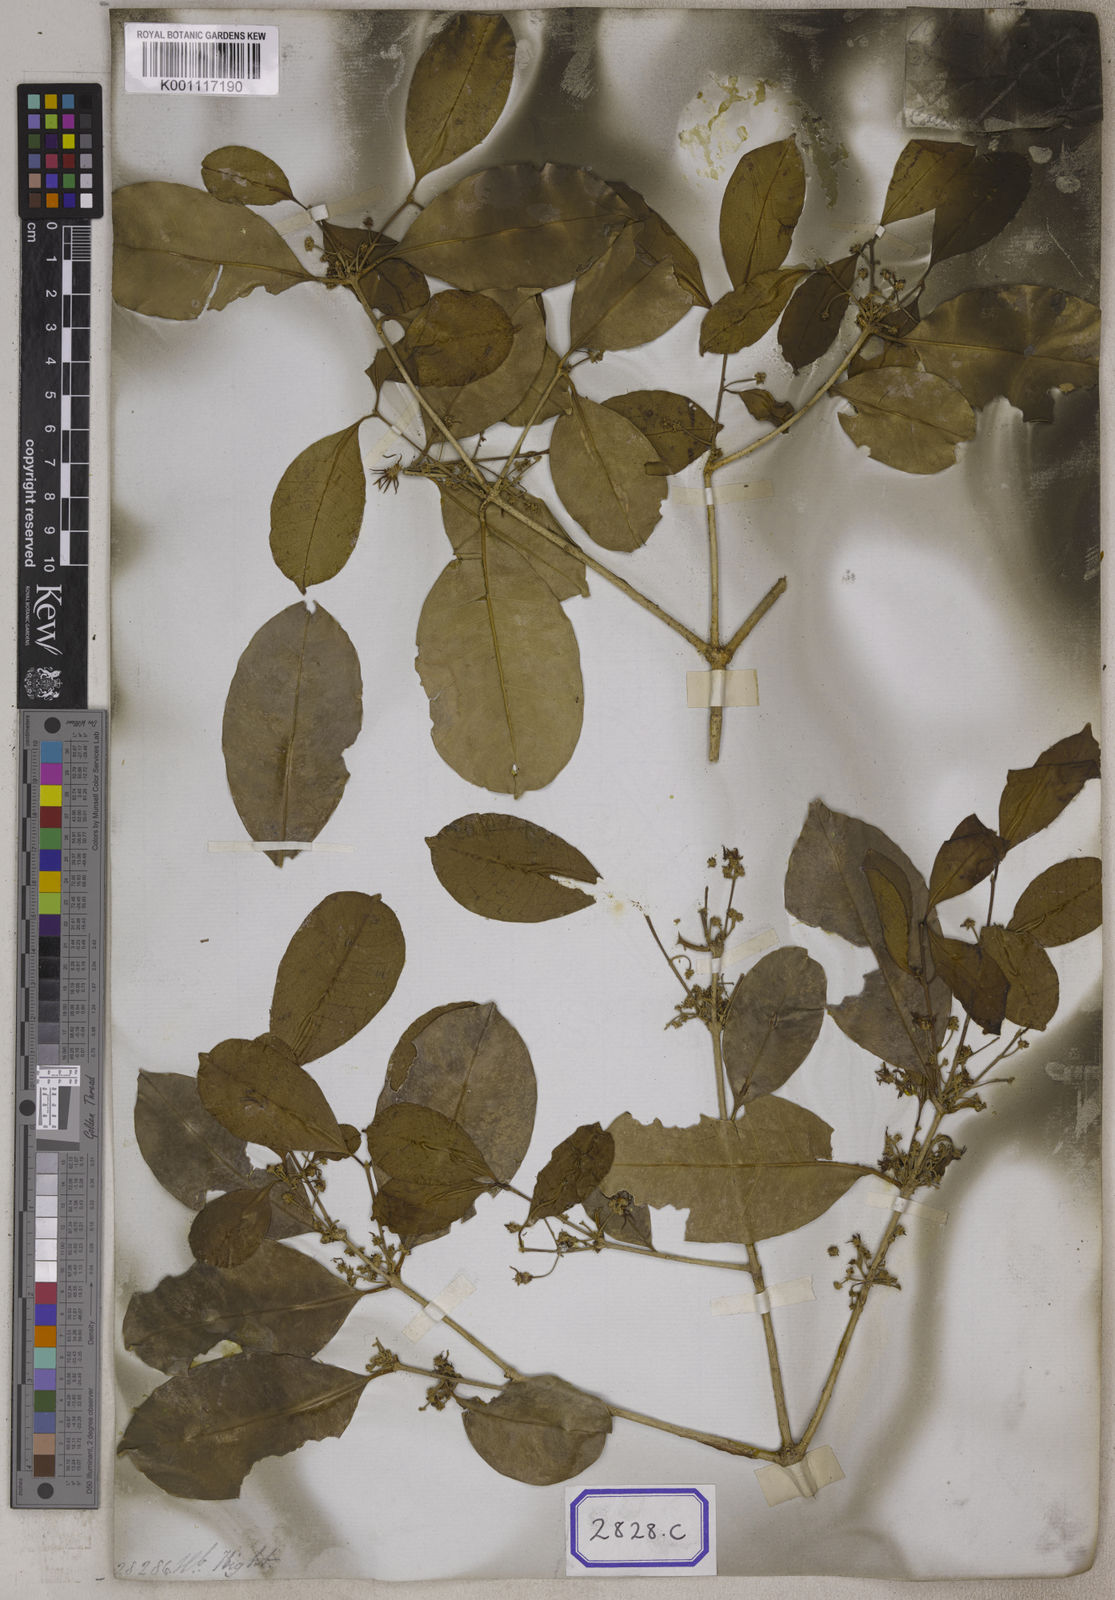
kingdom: Plantae
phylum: Tracheophyta
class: Magnoliopsida
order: Lamiales
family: Oleaceae
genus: Chionanthus
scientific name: Chionanthus
